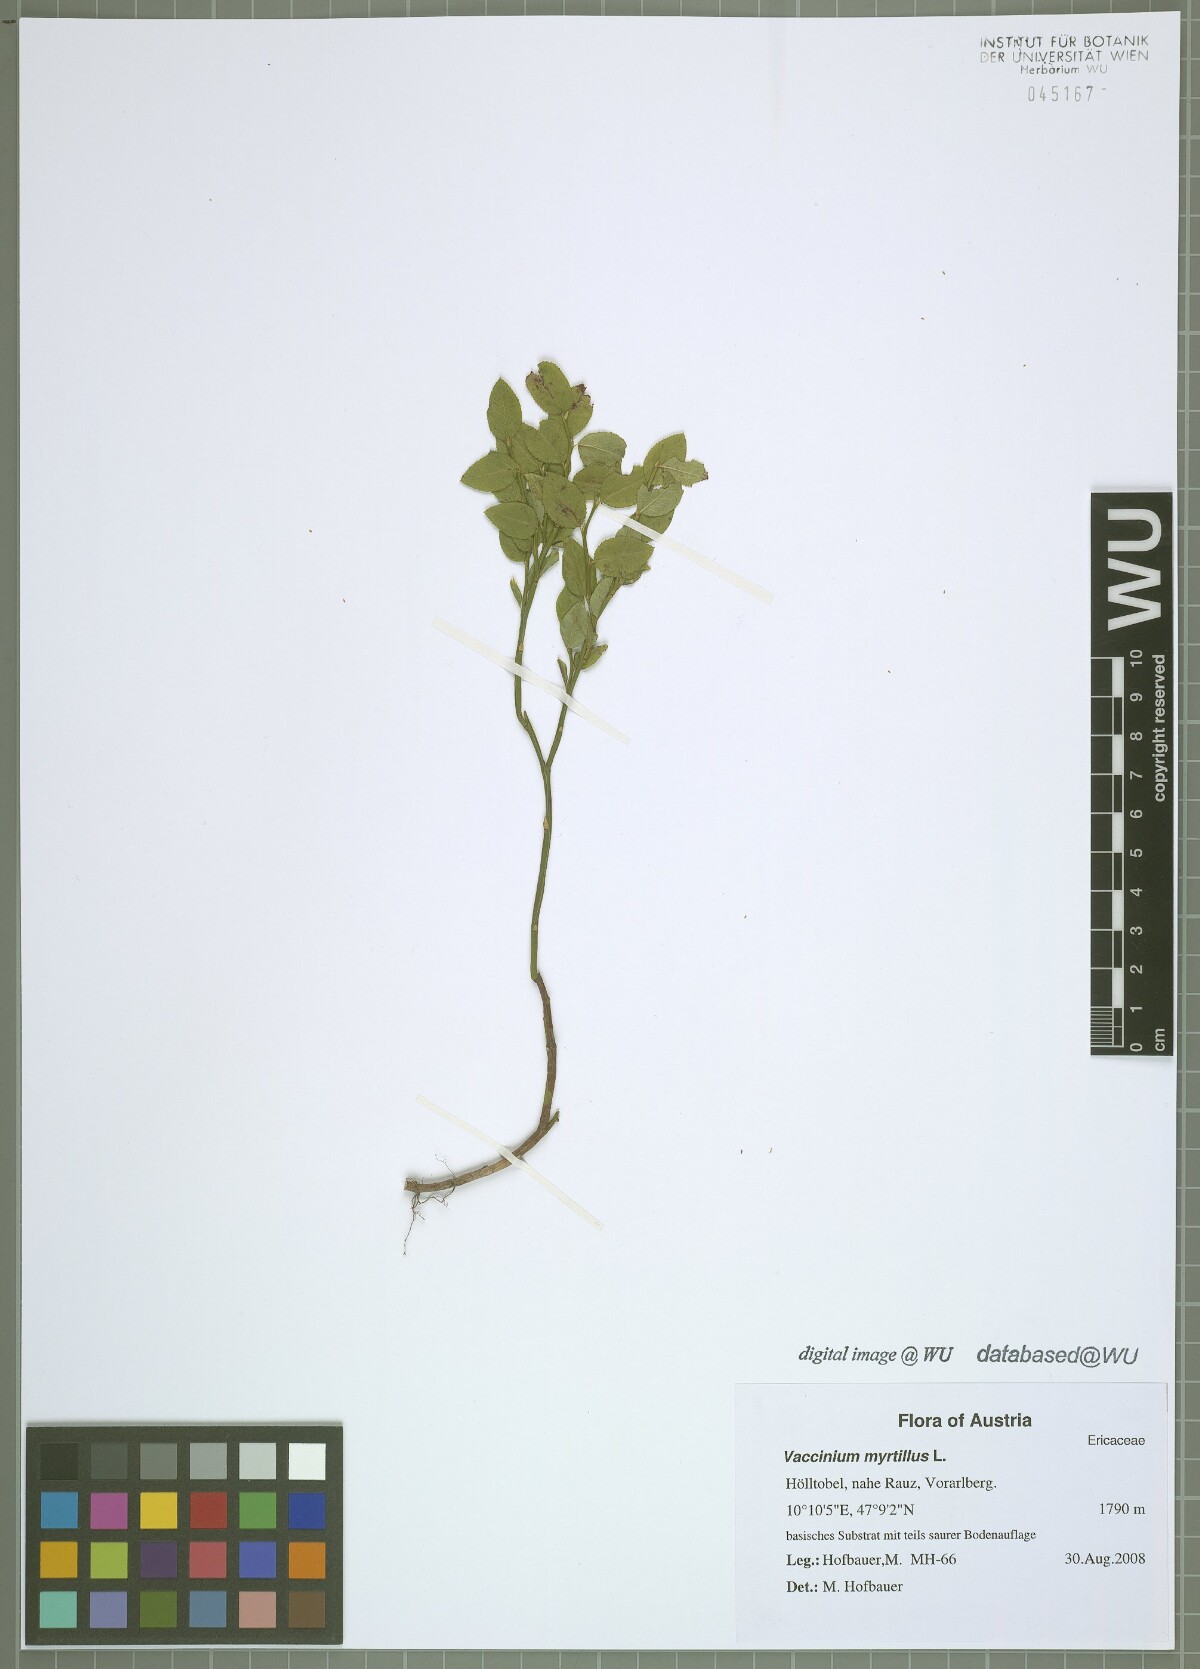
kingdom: Plantae
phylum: Tracheophyta
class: Magnoliopsida
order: Ericales
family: Ericaceae
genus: Vaccinium
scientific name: Vaccinium myrtillus
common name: Bilberry
